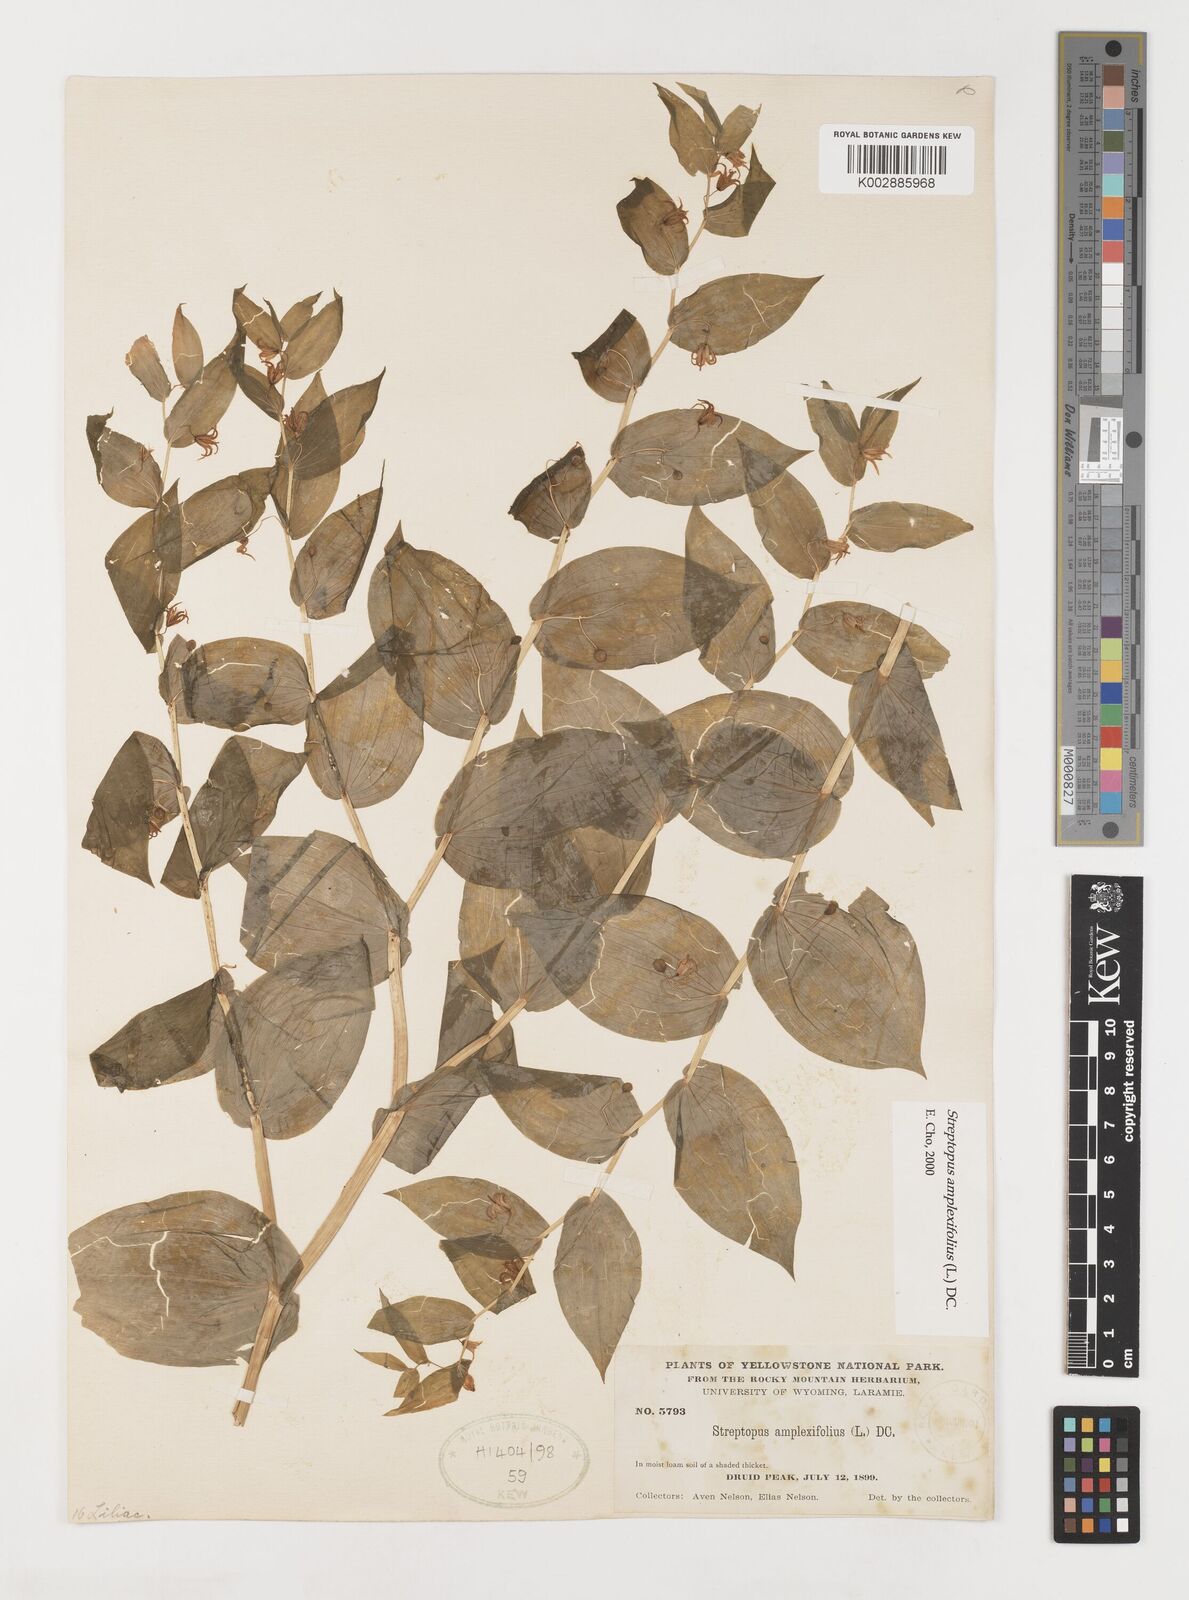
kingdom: Plantae
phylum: Tracheophyta
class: Liliopsida
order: Liliales
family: Liliaceae
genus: Streptopus
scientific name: Streptopus amplexifolius
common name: Clasp twisted stalk
